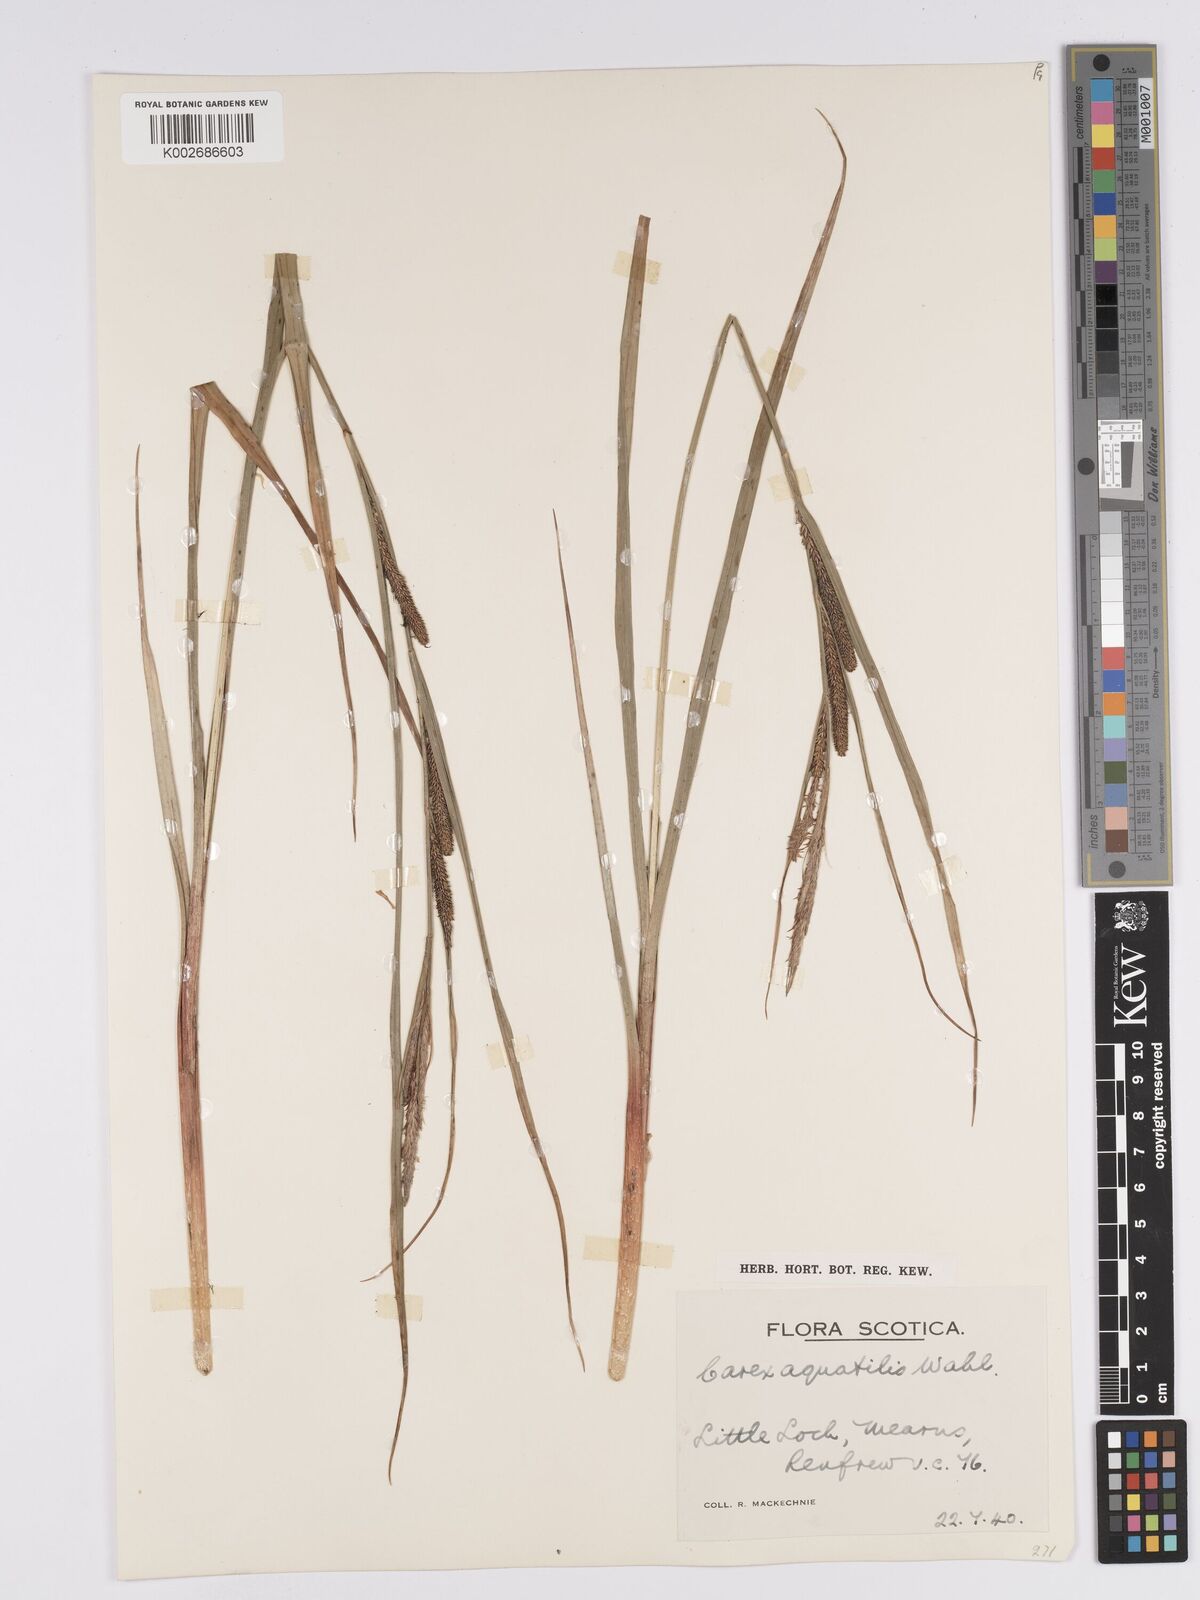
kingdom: Plantae
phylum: Tracheophyta
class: Liliopsida
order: Poales
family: Cyperaceae
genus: Carex
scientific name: Carex aquatilis
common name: Water sedge
